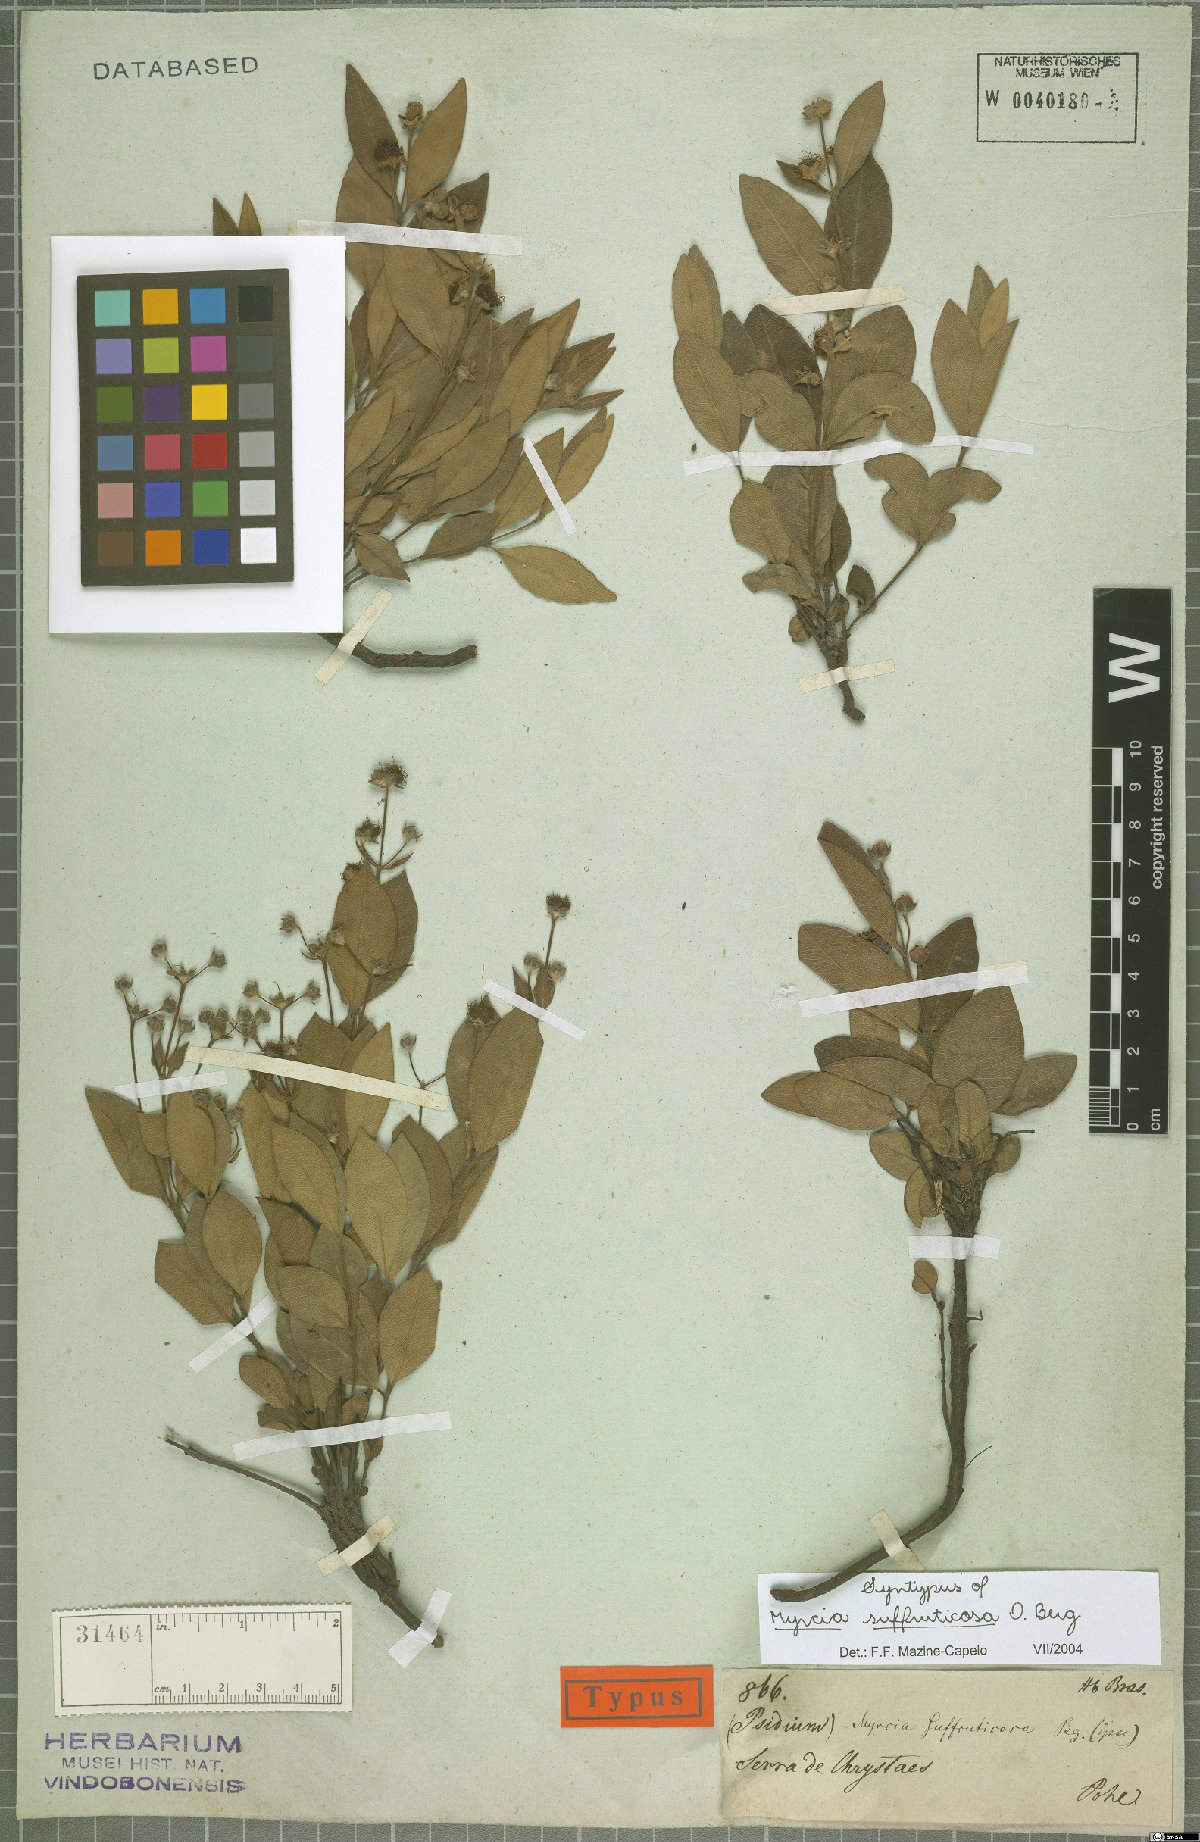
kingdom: Plantae
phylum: Tracheophyta
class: Magnoliopsida
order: Myrtales
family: Myrtaceae
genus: Myrcia
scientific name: Myrcia suffruticosa
